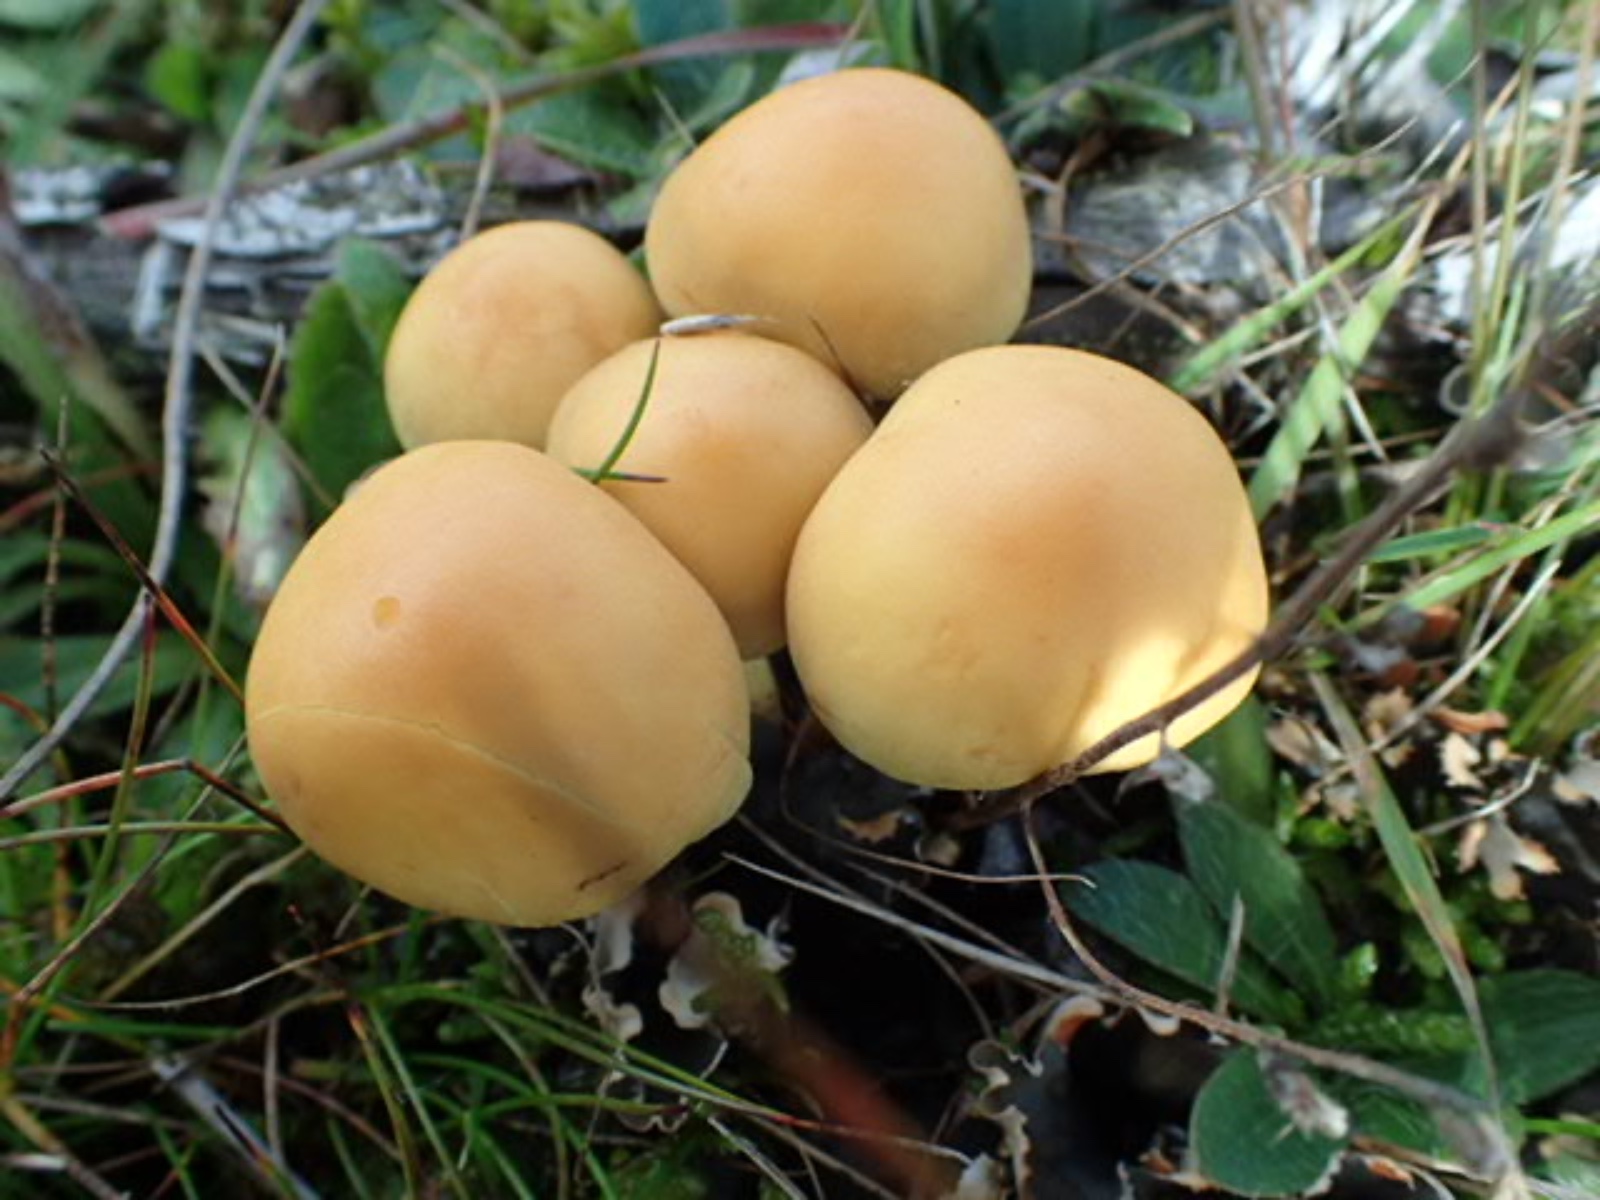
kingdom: Fungi
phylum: Basidiomycota
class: Agaricomycetes
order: Agaricales
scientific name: Agaricales
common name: champignonordenen
